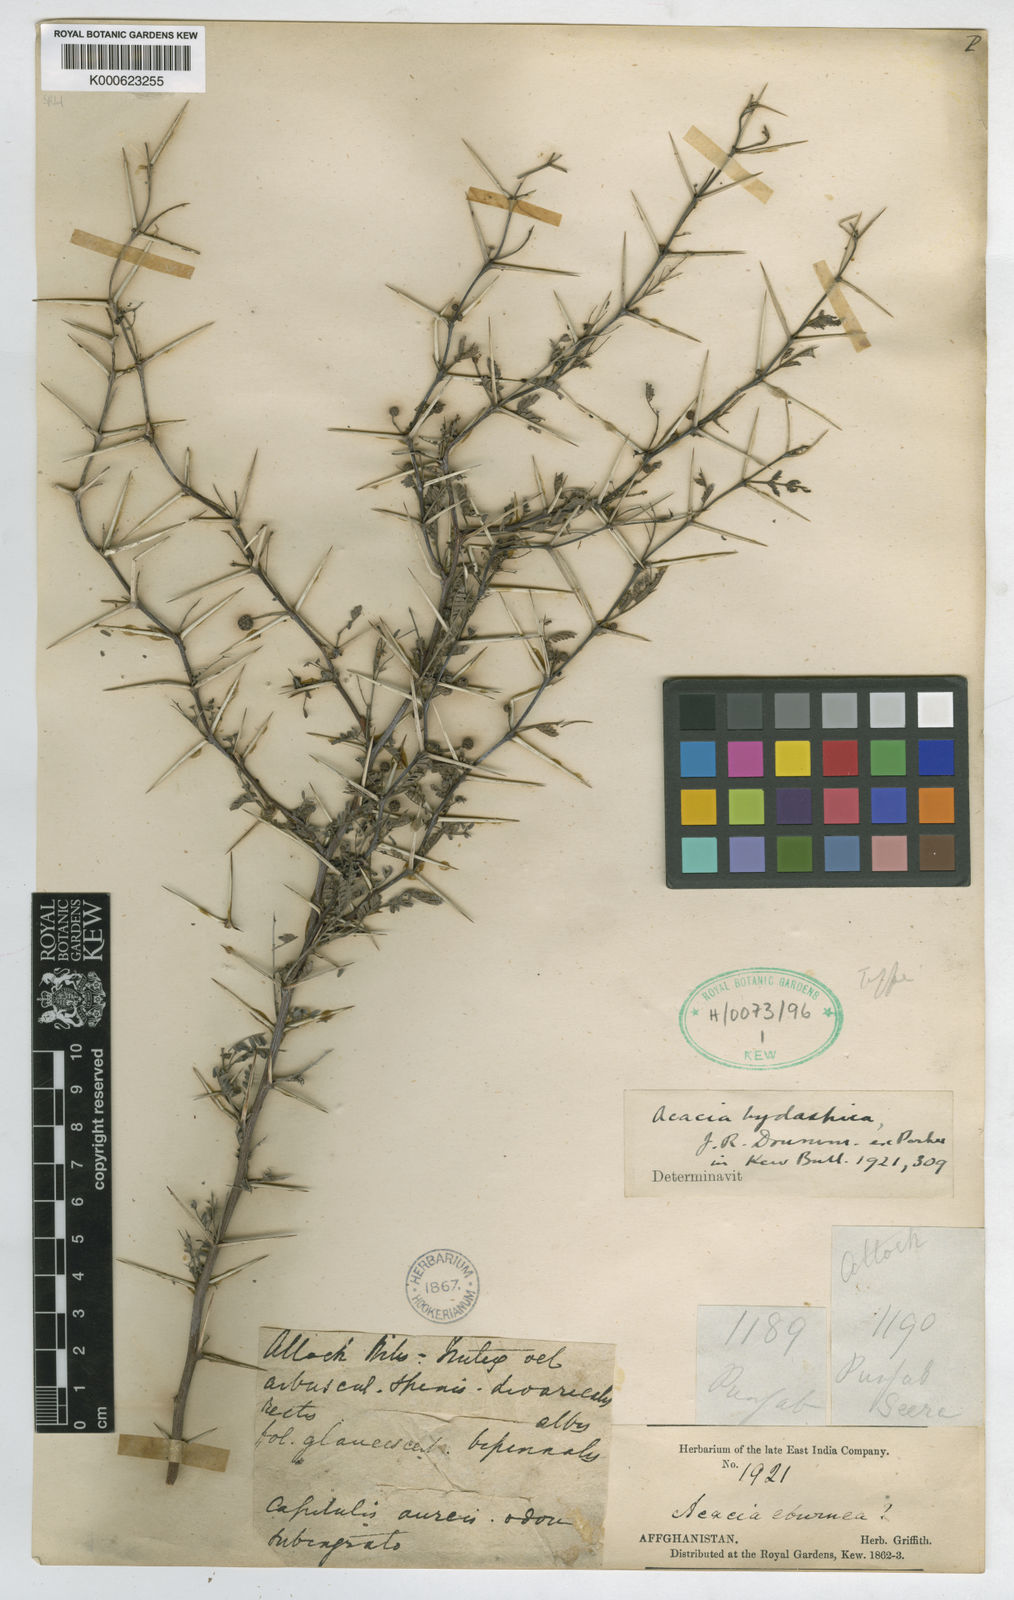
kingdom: Plantae
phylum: Tracheophyta
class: Magnoliopsida
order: Fabales
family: Fabaceae
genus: Vachellia
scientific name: Vachellia hydaspica
